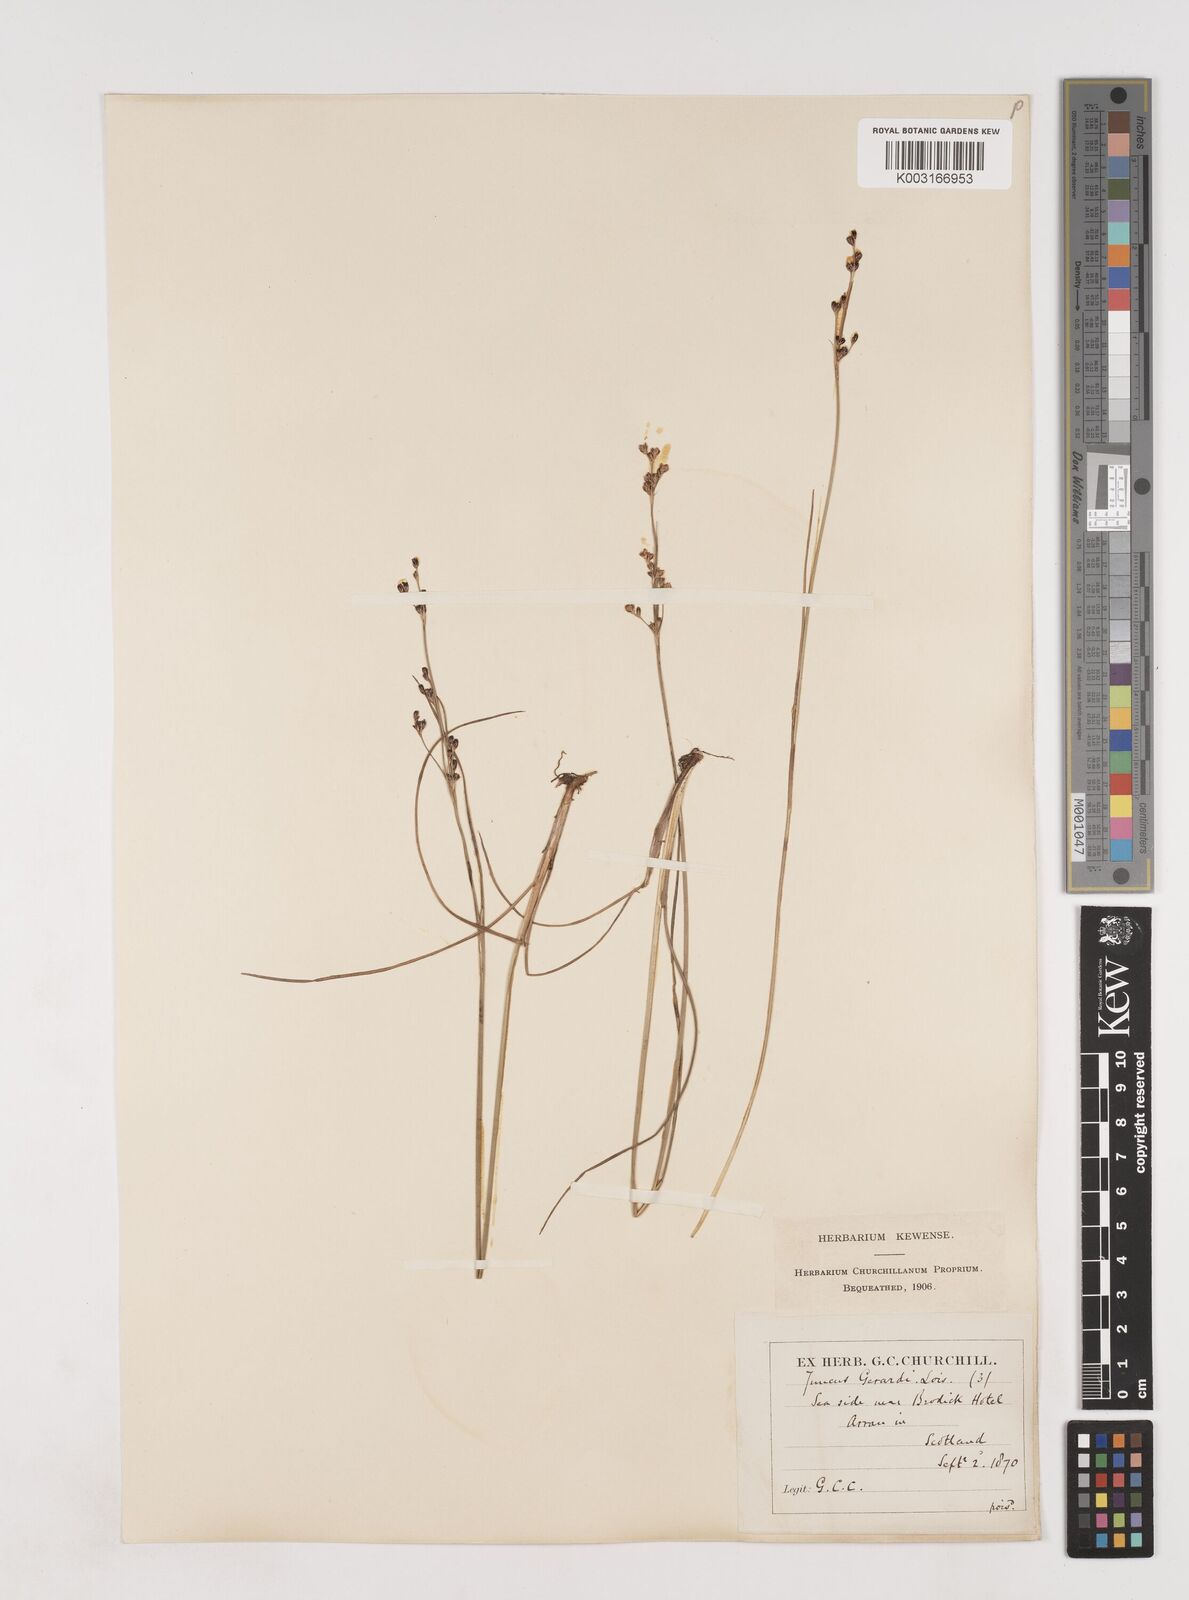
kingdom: Plantae
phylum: Tracheophyta
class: Liliopsida
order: Poales
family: Juncaceae
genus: Juncus
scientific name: Juncus gerardi
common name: Saltmarsh rush
